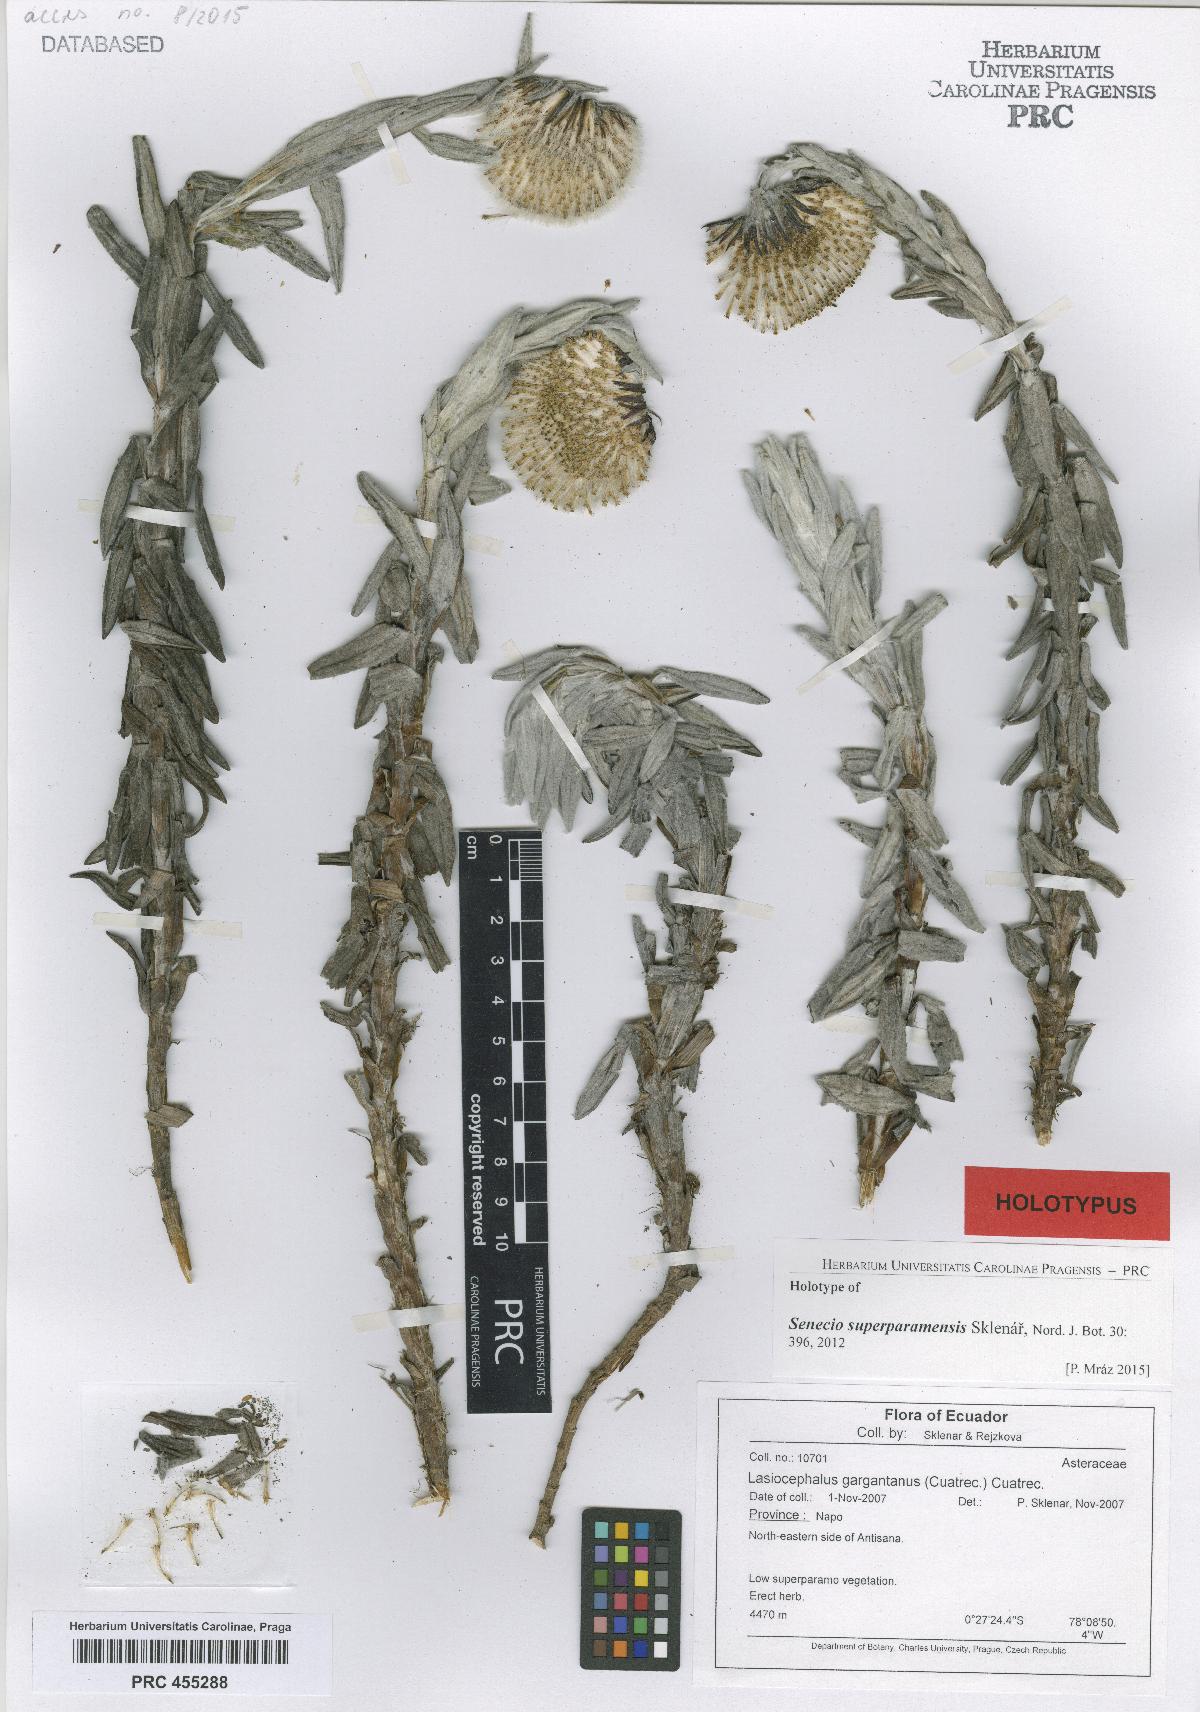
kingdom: Plantae
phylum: Tracheophyta
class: Magnoliopsida
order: Asterales
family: Asteraceae
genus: Aetheolaena
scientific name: Aetheolaena gargantanus
